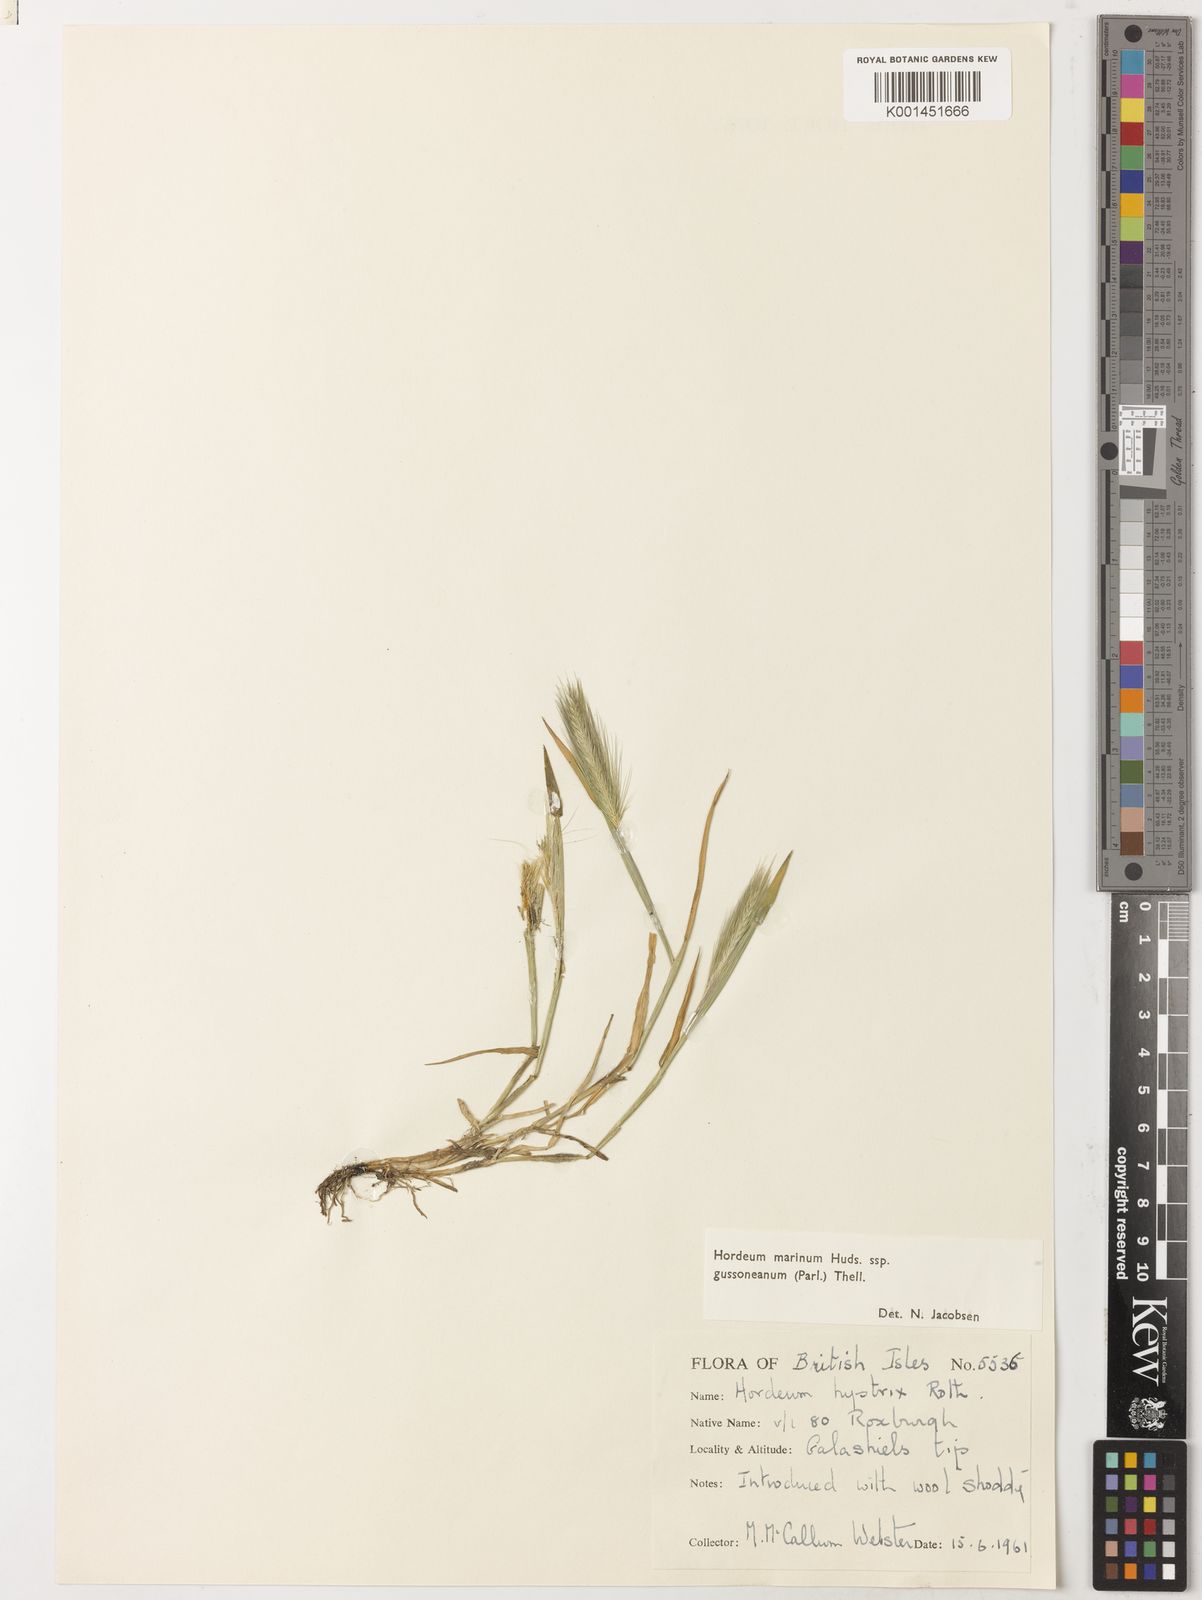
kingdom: Plantae
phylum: Tracheophyta
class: Liliopsida
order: Poales
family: Poaceae
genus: Hordeum
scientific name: Hordeum marinum
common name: Sea barley
